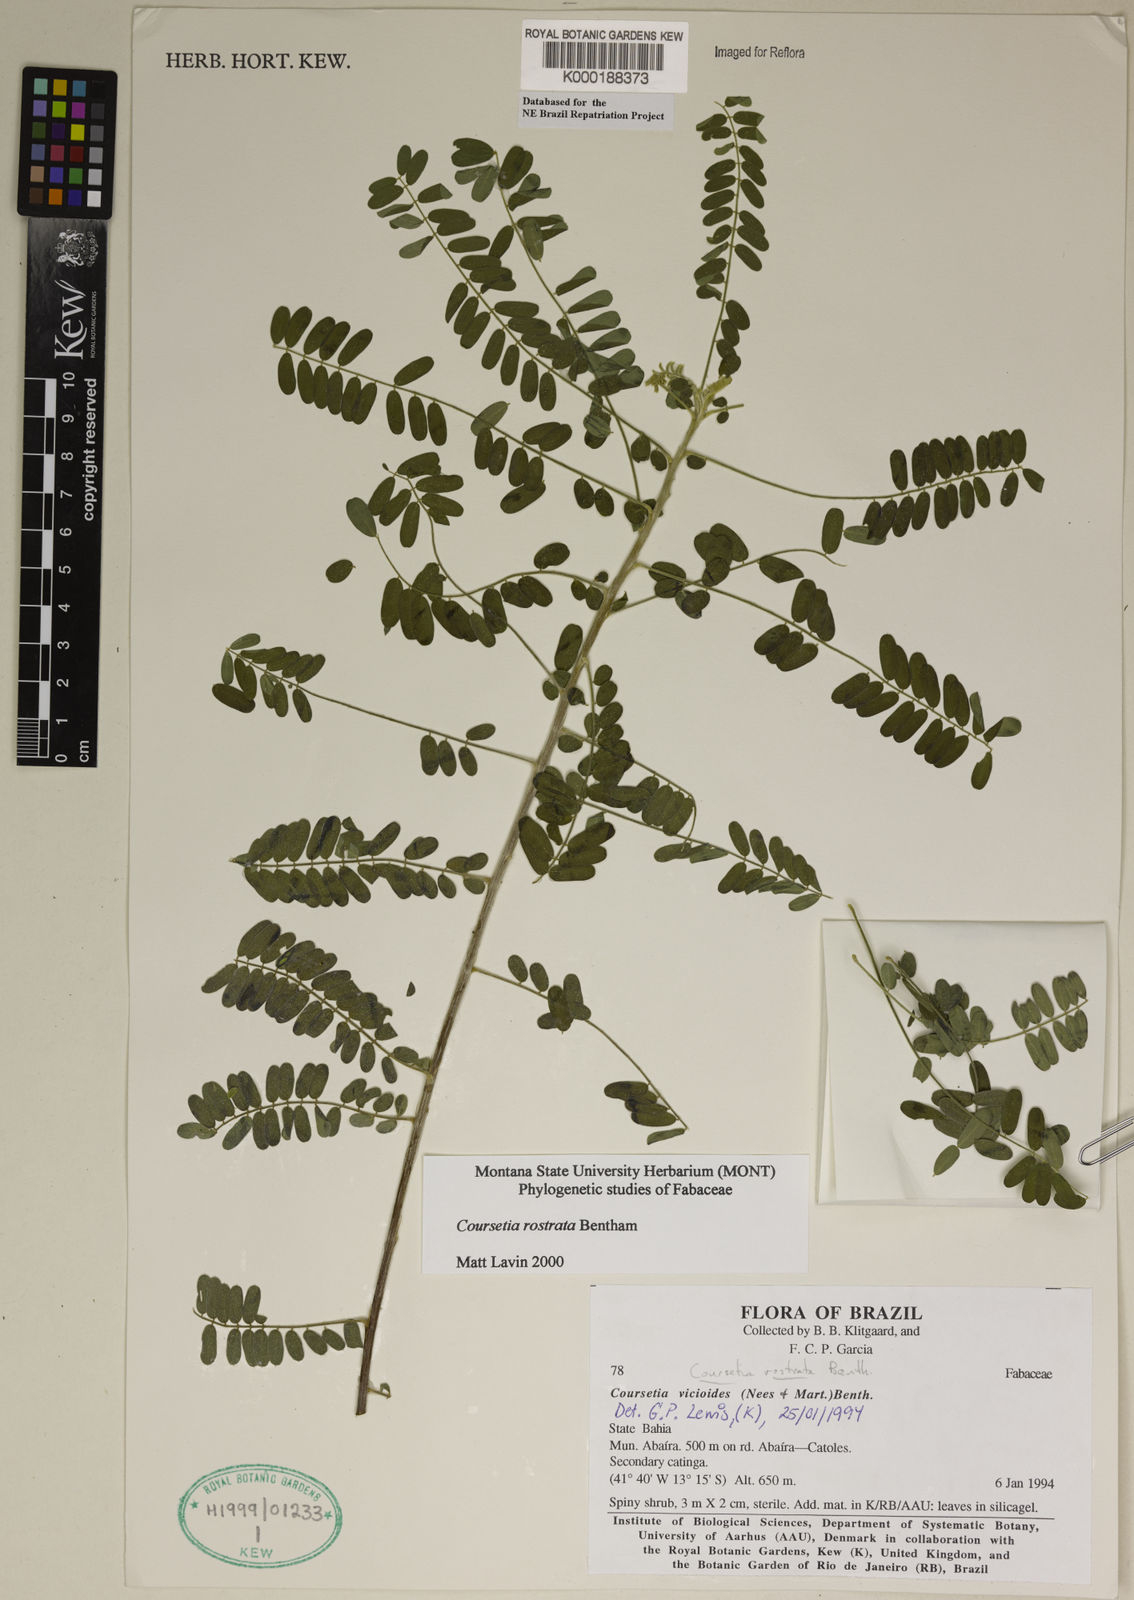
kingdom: Plantae
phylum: Tracheophyta
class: Magnoliopsida
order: Fabales
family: Fabaceae
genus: Coursetia
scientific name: Coursetia rostrata
